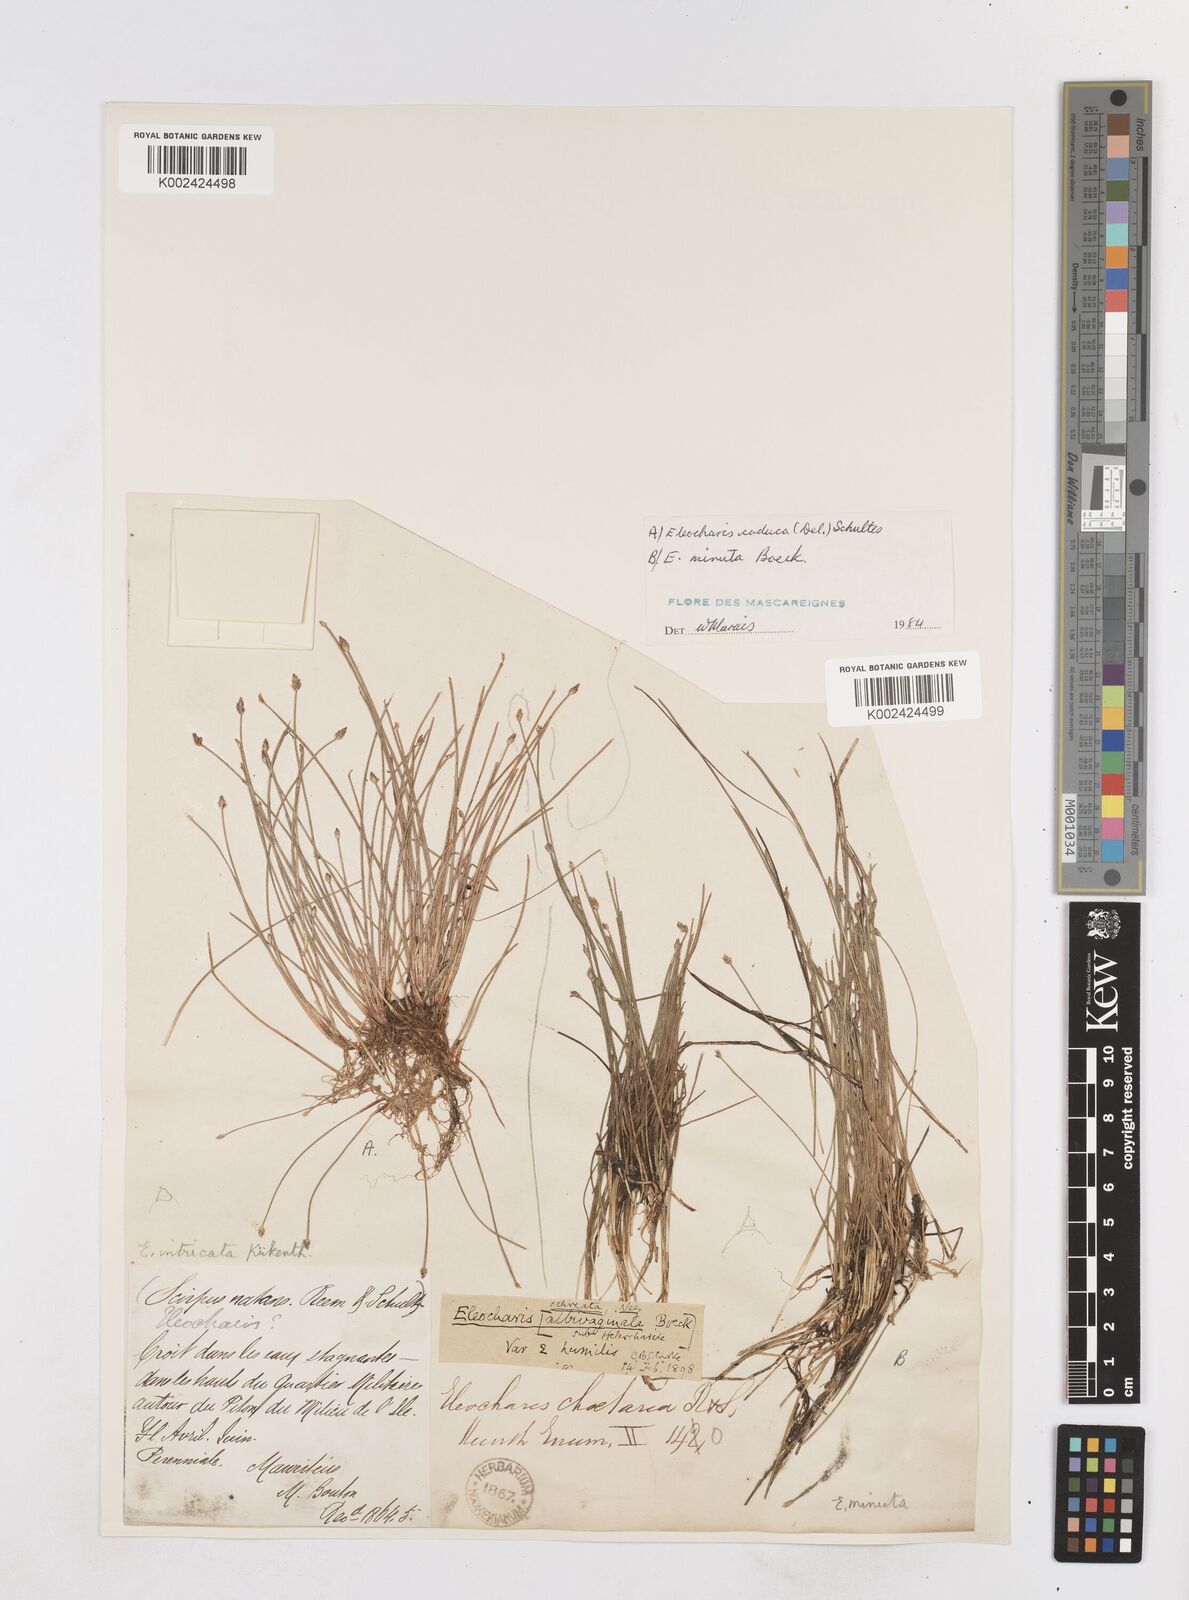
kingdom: Plantae
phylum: Tracheophyta
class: Liliopsida
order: Poales
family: Cyperaceae
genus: Eleocharis
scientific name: Eleocharis minuta
